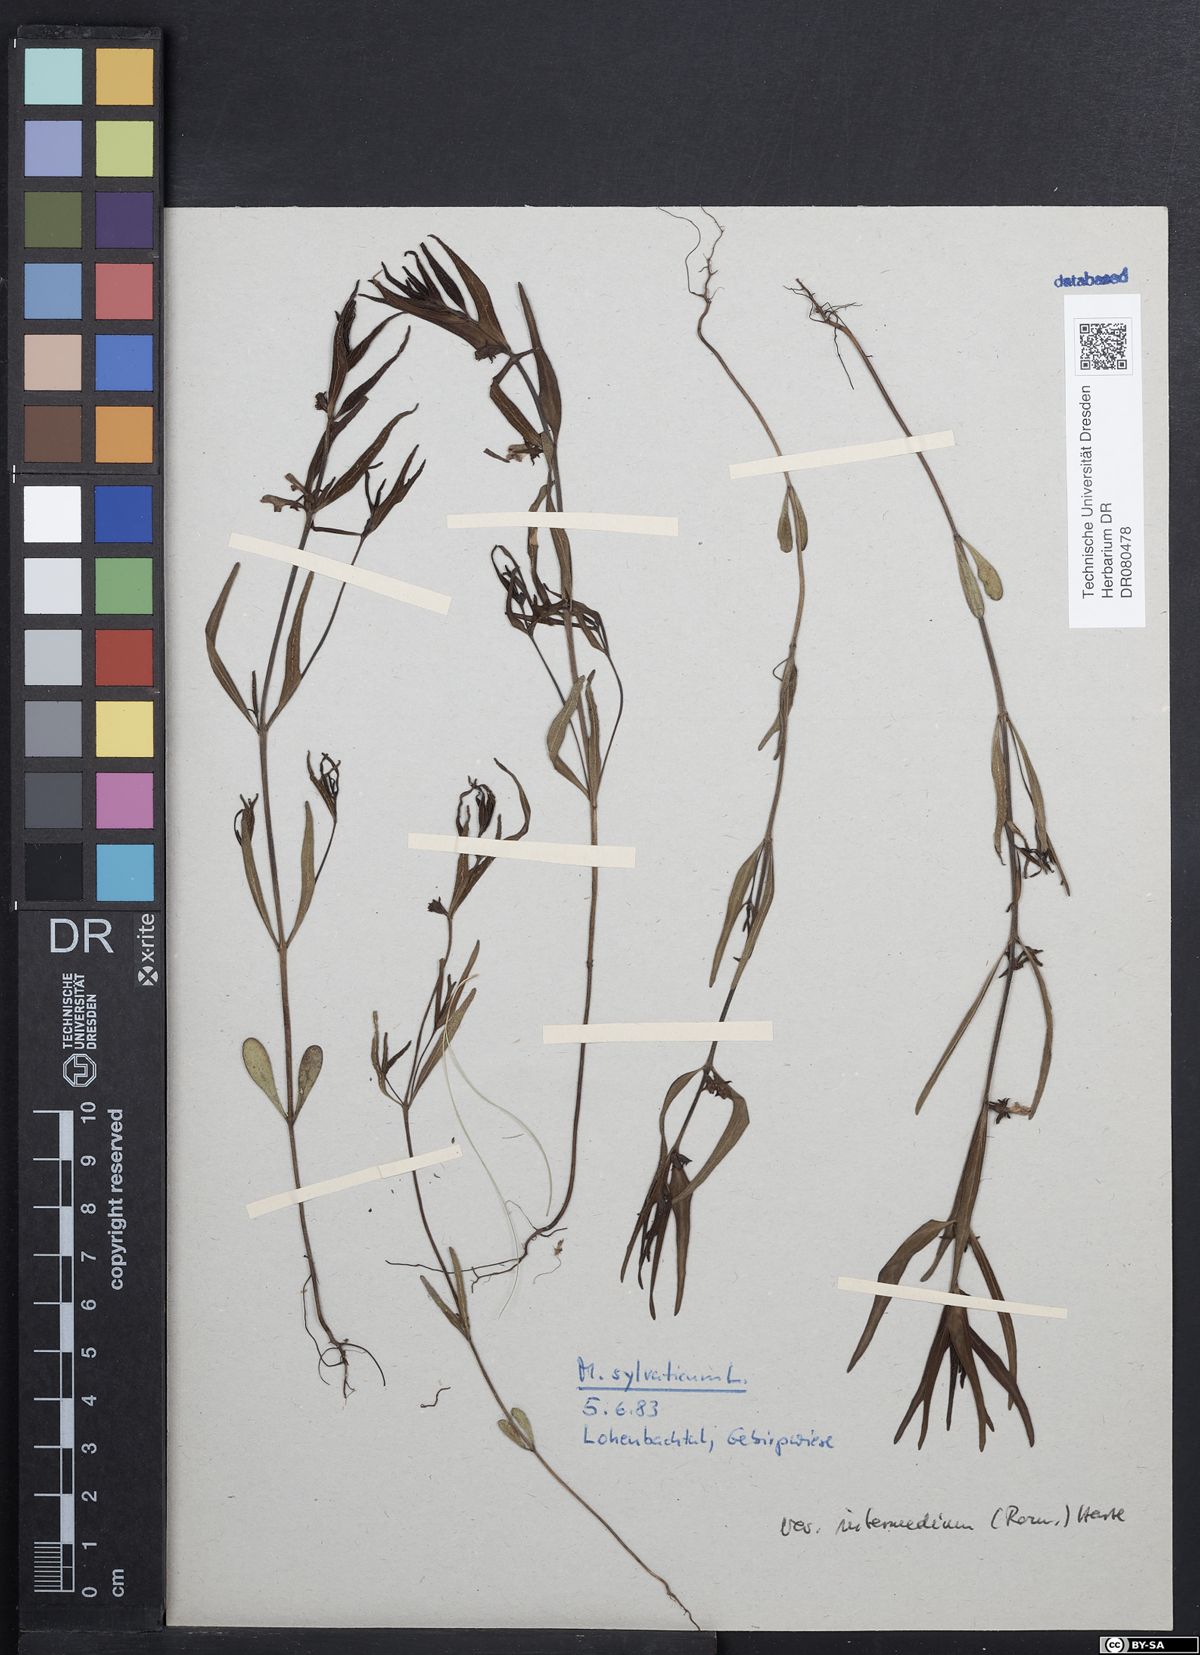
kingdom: Plantae
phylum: Tracheophyta
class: Magnoliopsida
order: Lamiales
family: Orobanchaceae
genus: Melampyrum
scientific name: Melampyrum sylvaticum
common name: Small cow-wheat
